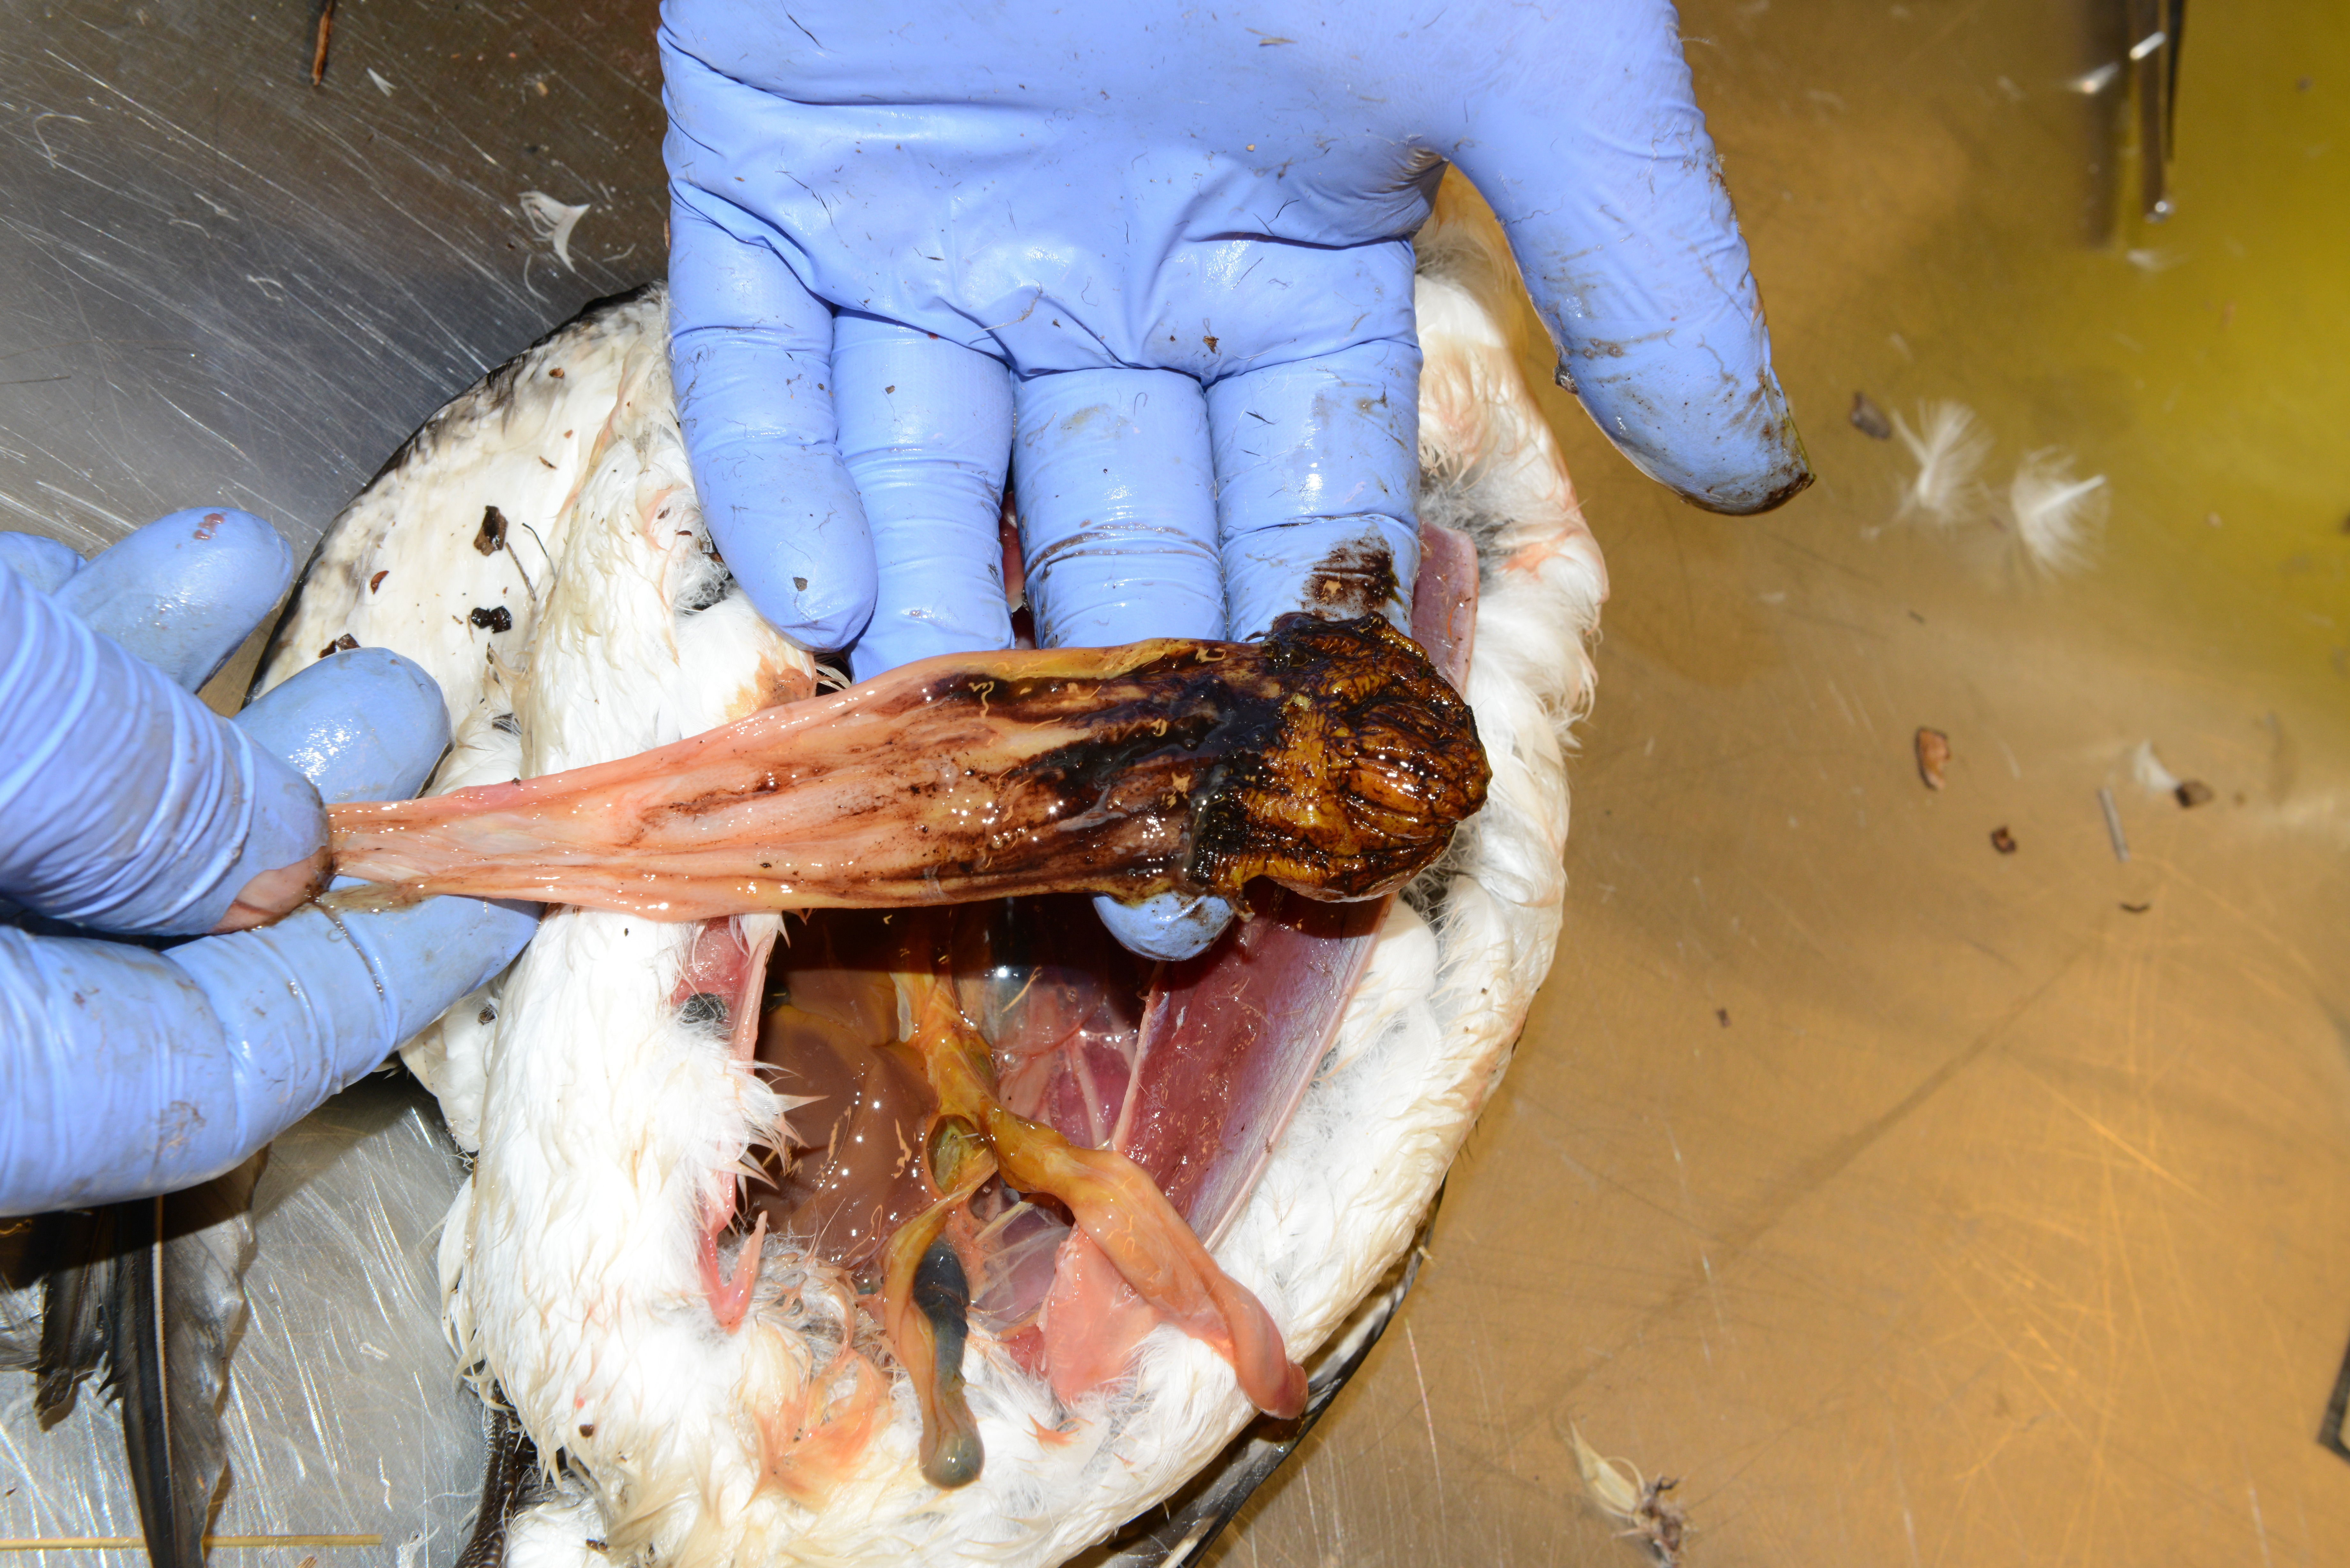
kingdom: Animalia
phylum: Chordata
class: Aves
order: Charadriiformes
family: Alcidae
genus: Alca
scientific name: Alca torda
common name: Razorbill
